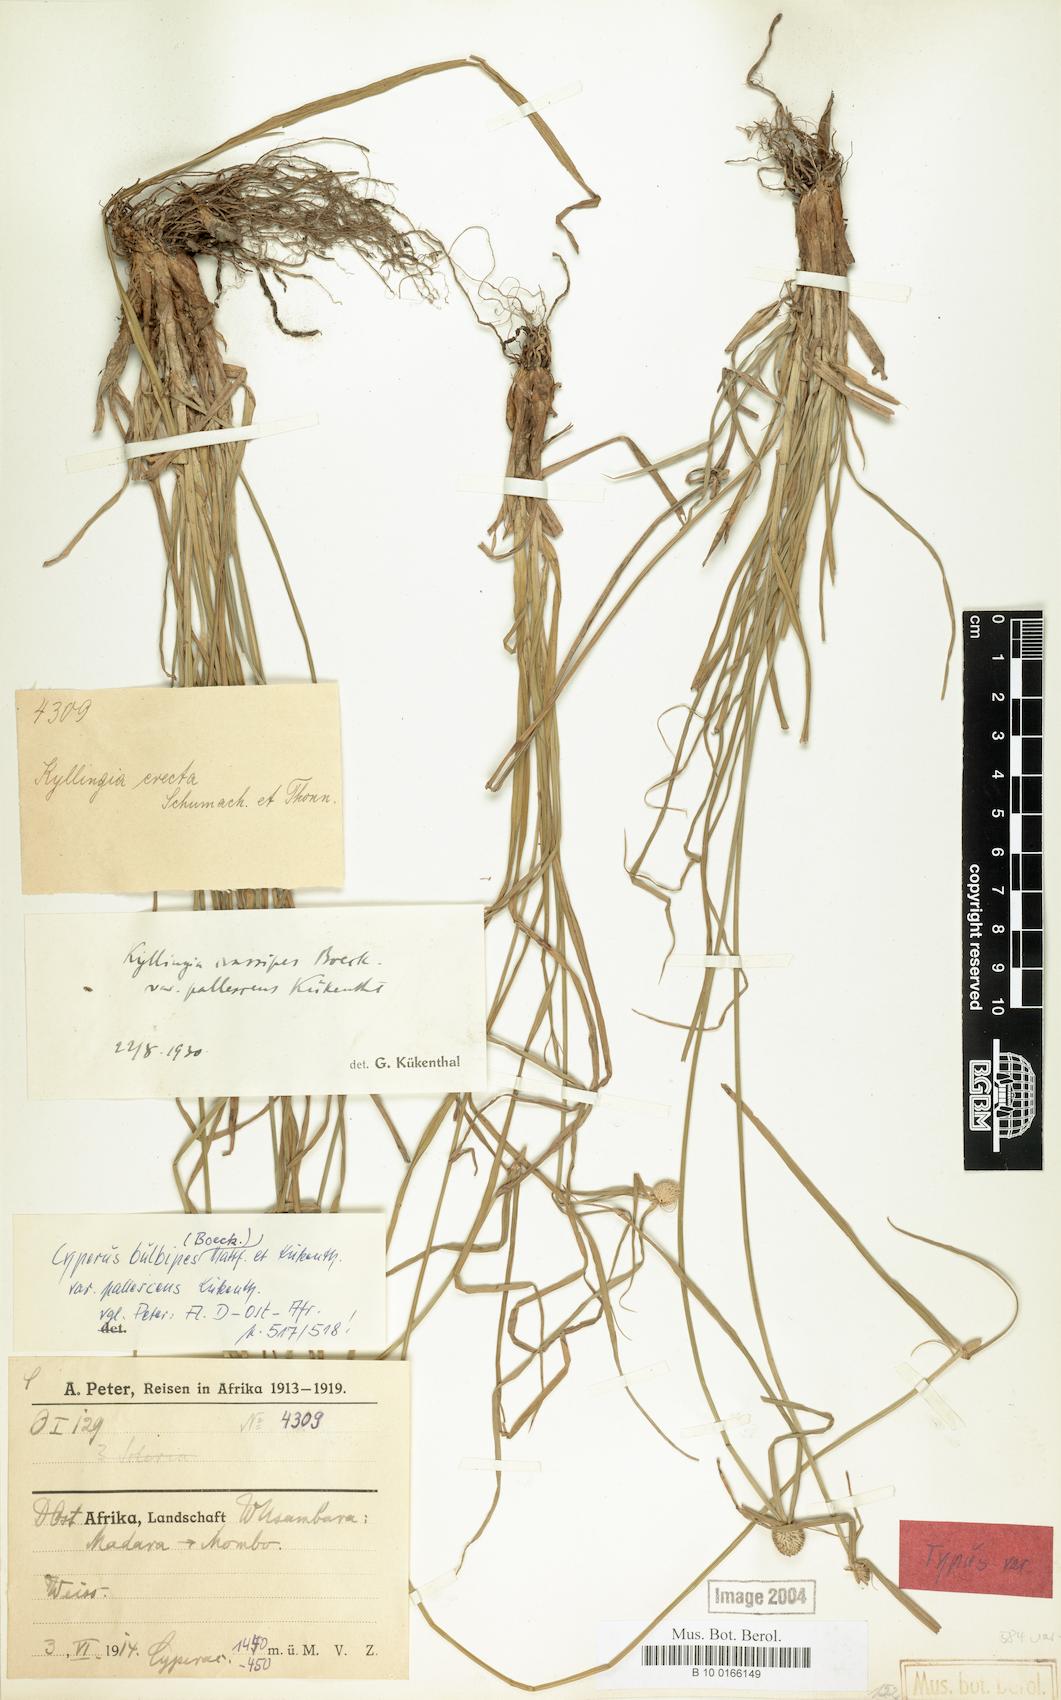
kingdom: Plantae
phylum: Tracheophyta
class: Liliopsida
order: Poales
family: Cyperaceae
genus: Cyperus
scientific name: Cyperus bulbipes
